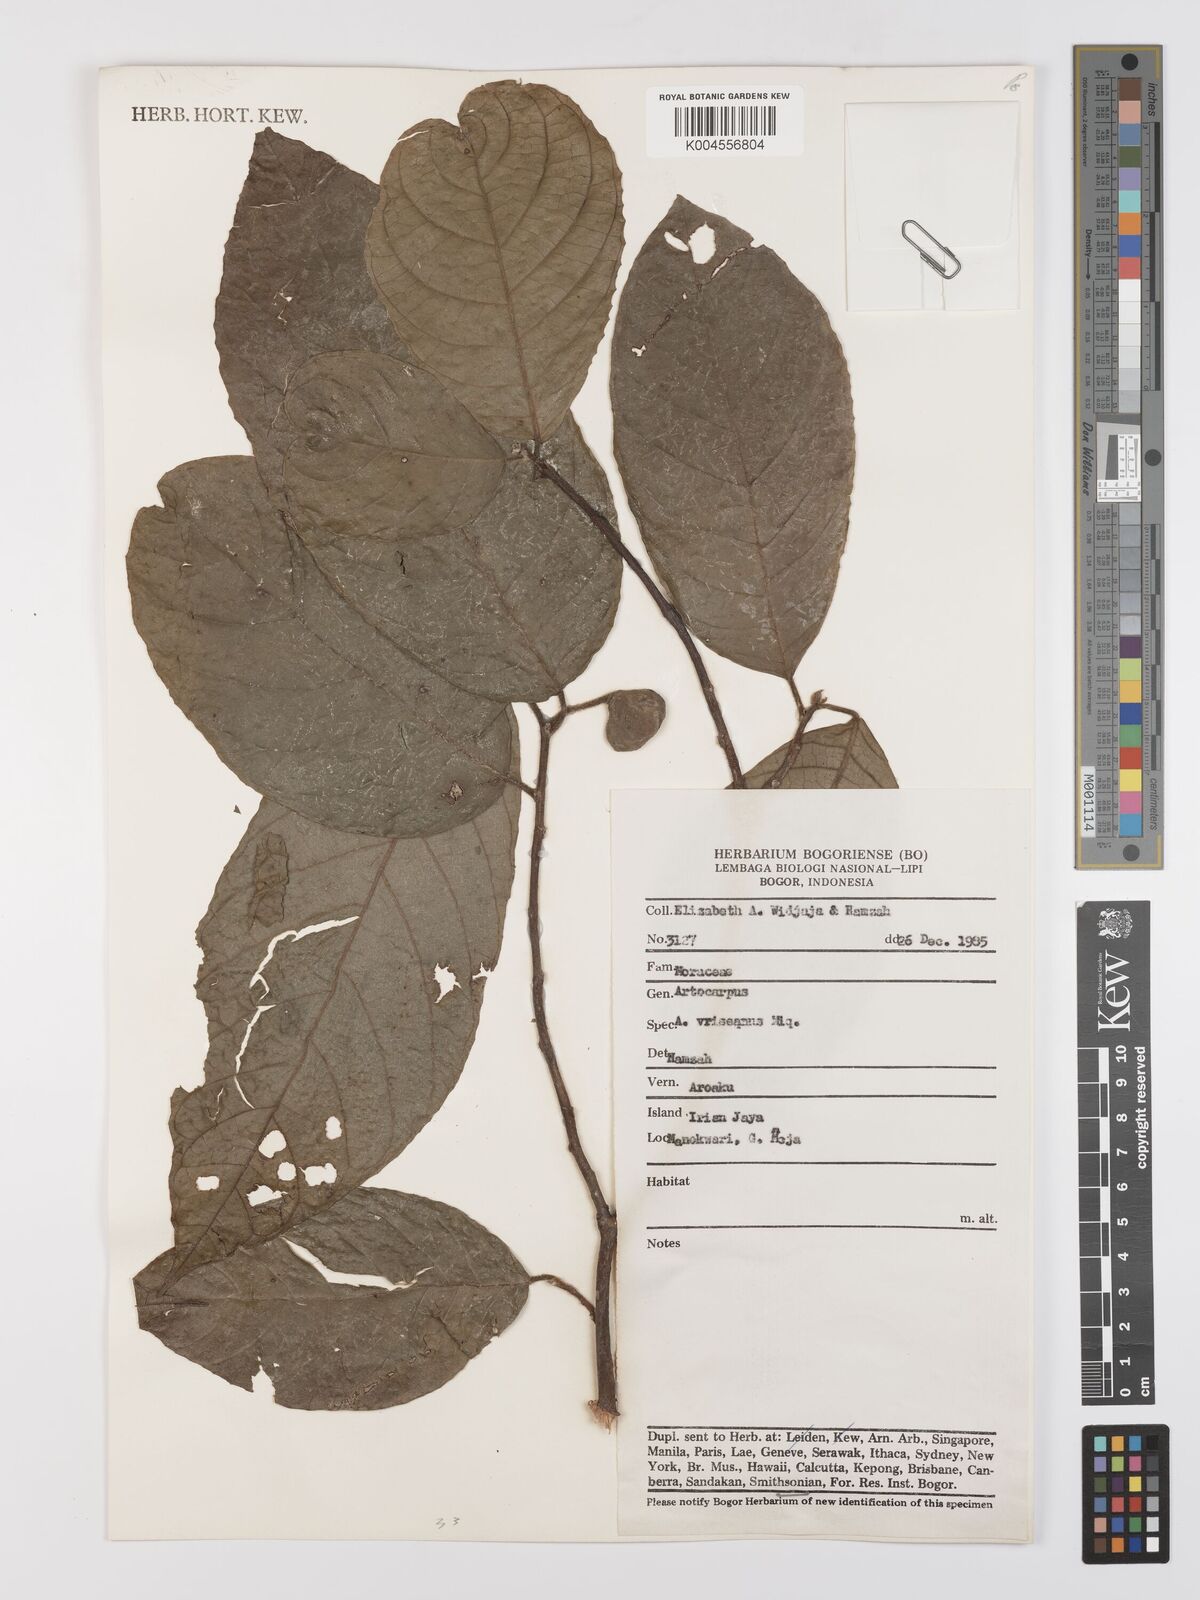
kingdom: Plantae
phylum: Tracheophyta
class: Magnoliopsida
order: Rosales
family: Moraceae
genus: Artocarpus
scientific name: Artocarpus vrieseanus
